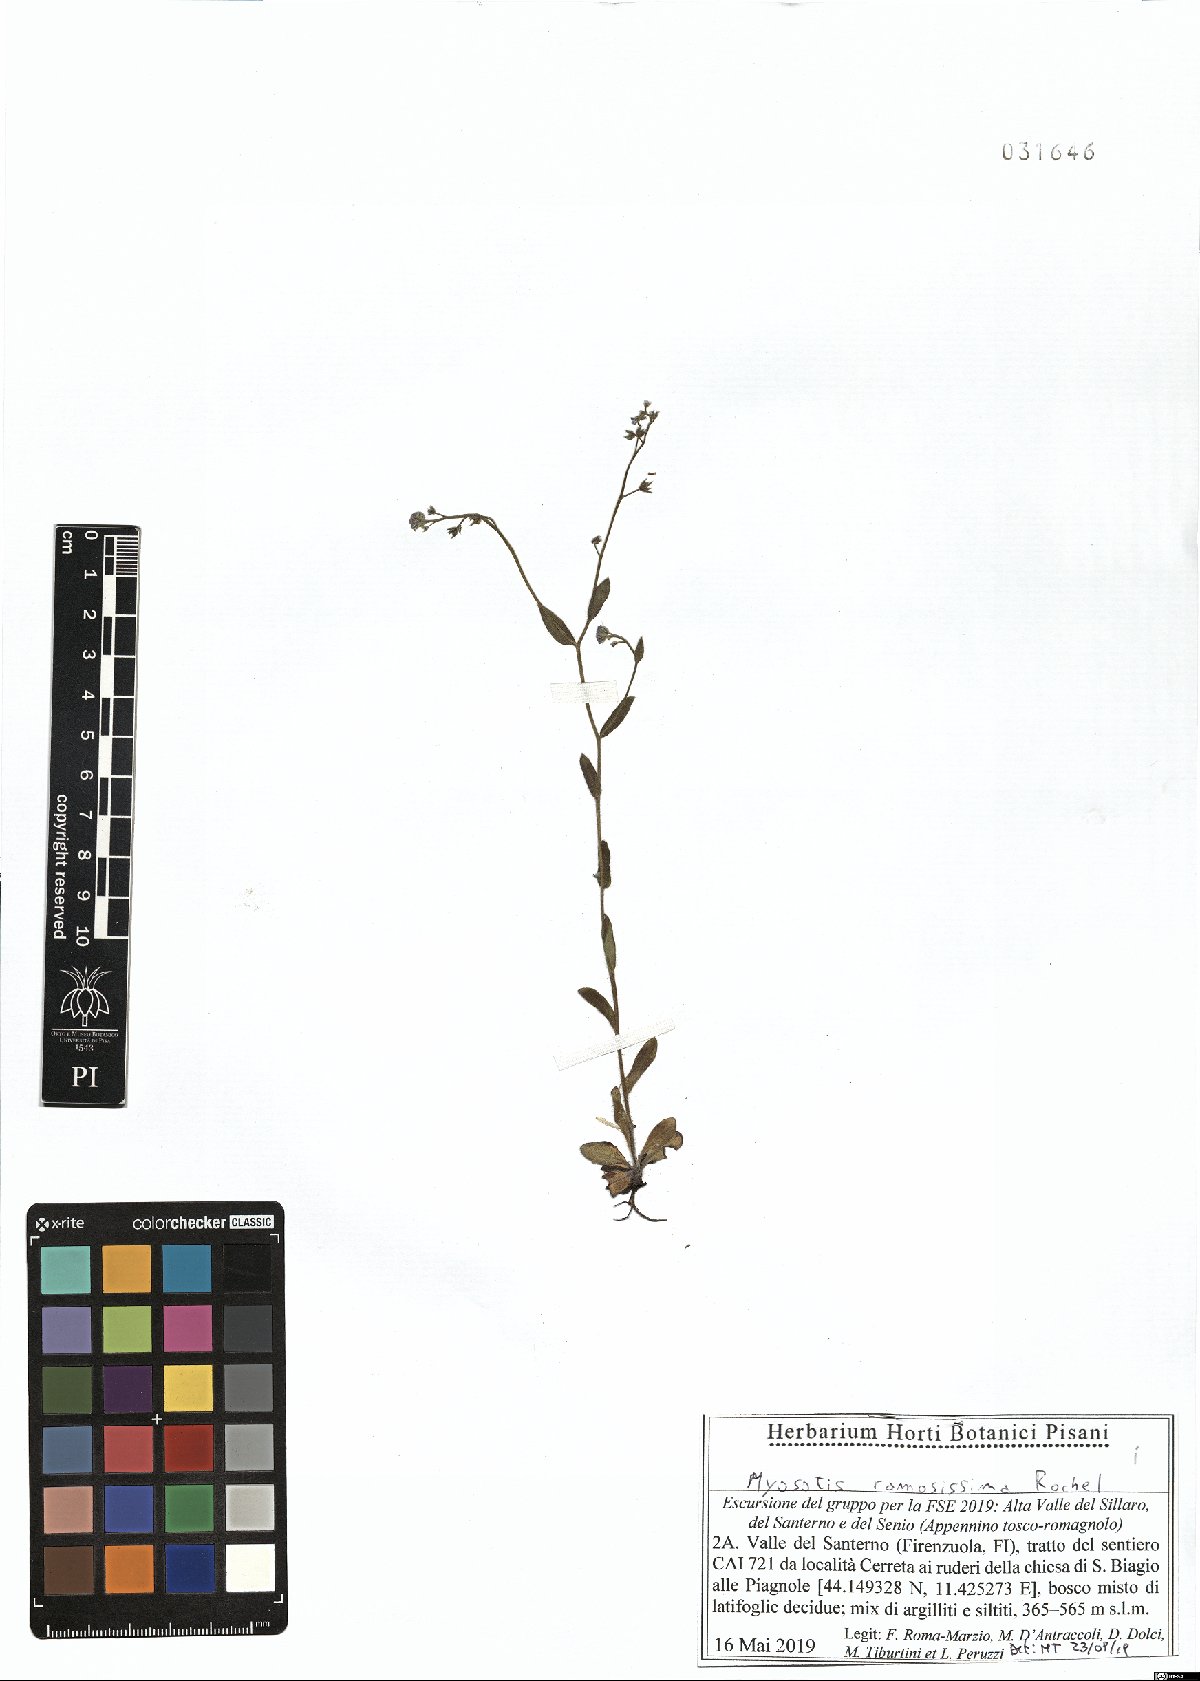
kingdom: Plantae
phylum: Tracheophyta
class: Magnoliopsida
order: Boraginales
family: Boraginaceae
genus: Myosotis
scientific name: Myosotis ramosissima
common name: Early forget-me-not
